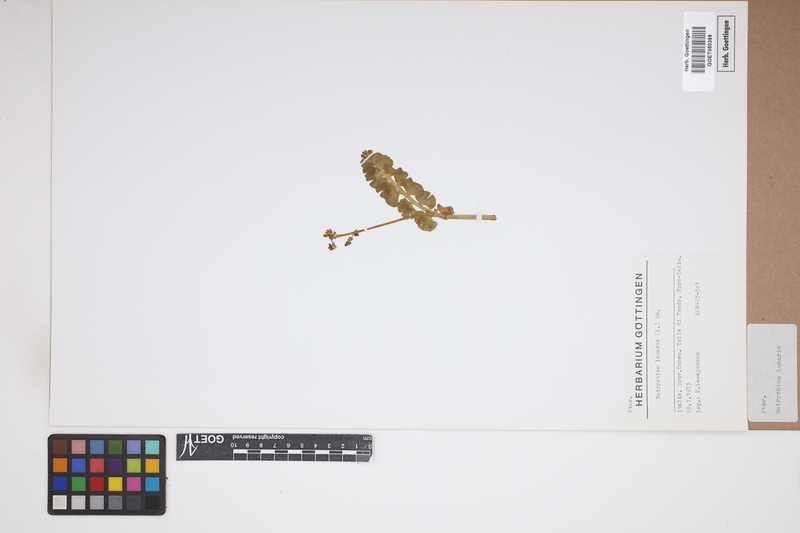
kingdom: Plantae
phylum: Tracheophyta
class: Polypodiopsida
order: Ophioglossales
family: Ophioglossaceae
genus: Botrychium
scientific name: Botrychium lunaria
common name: Moonwort
